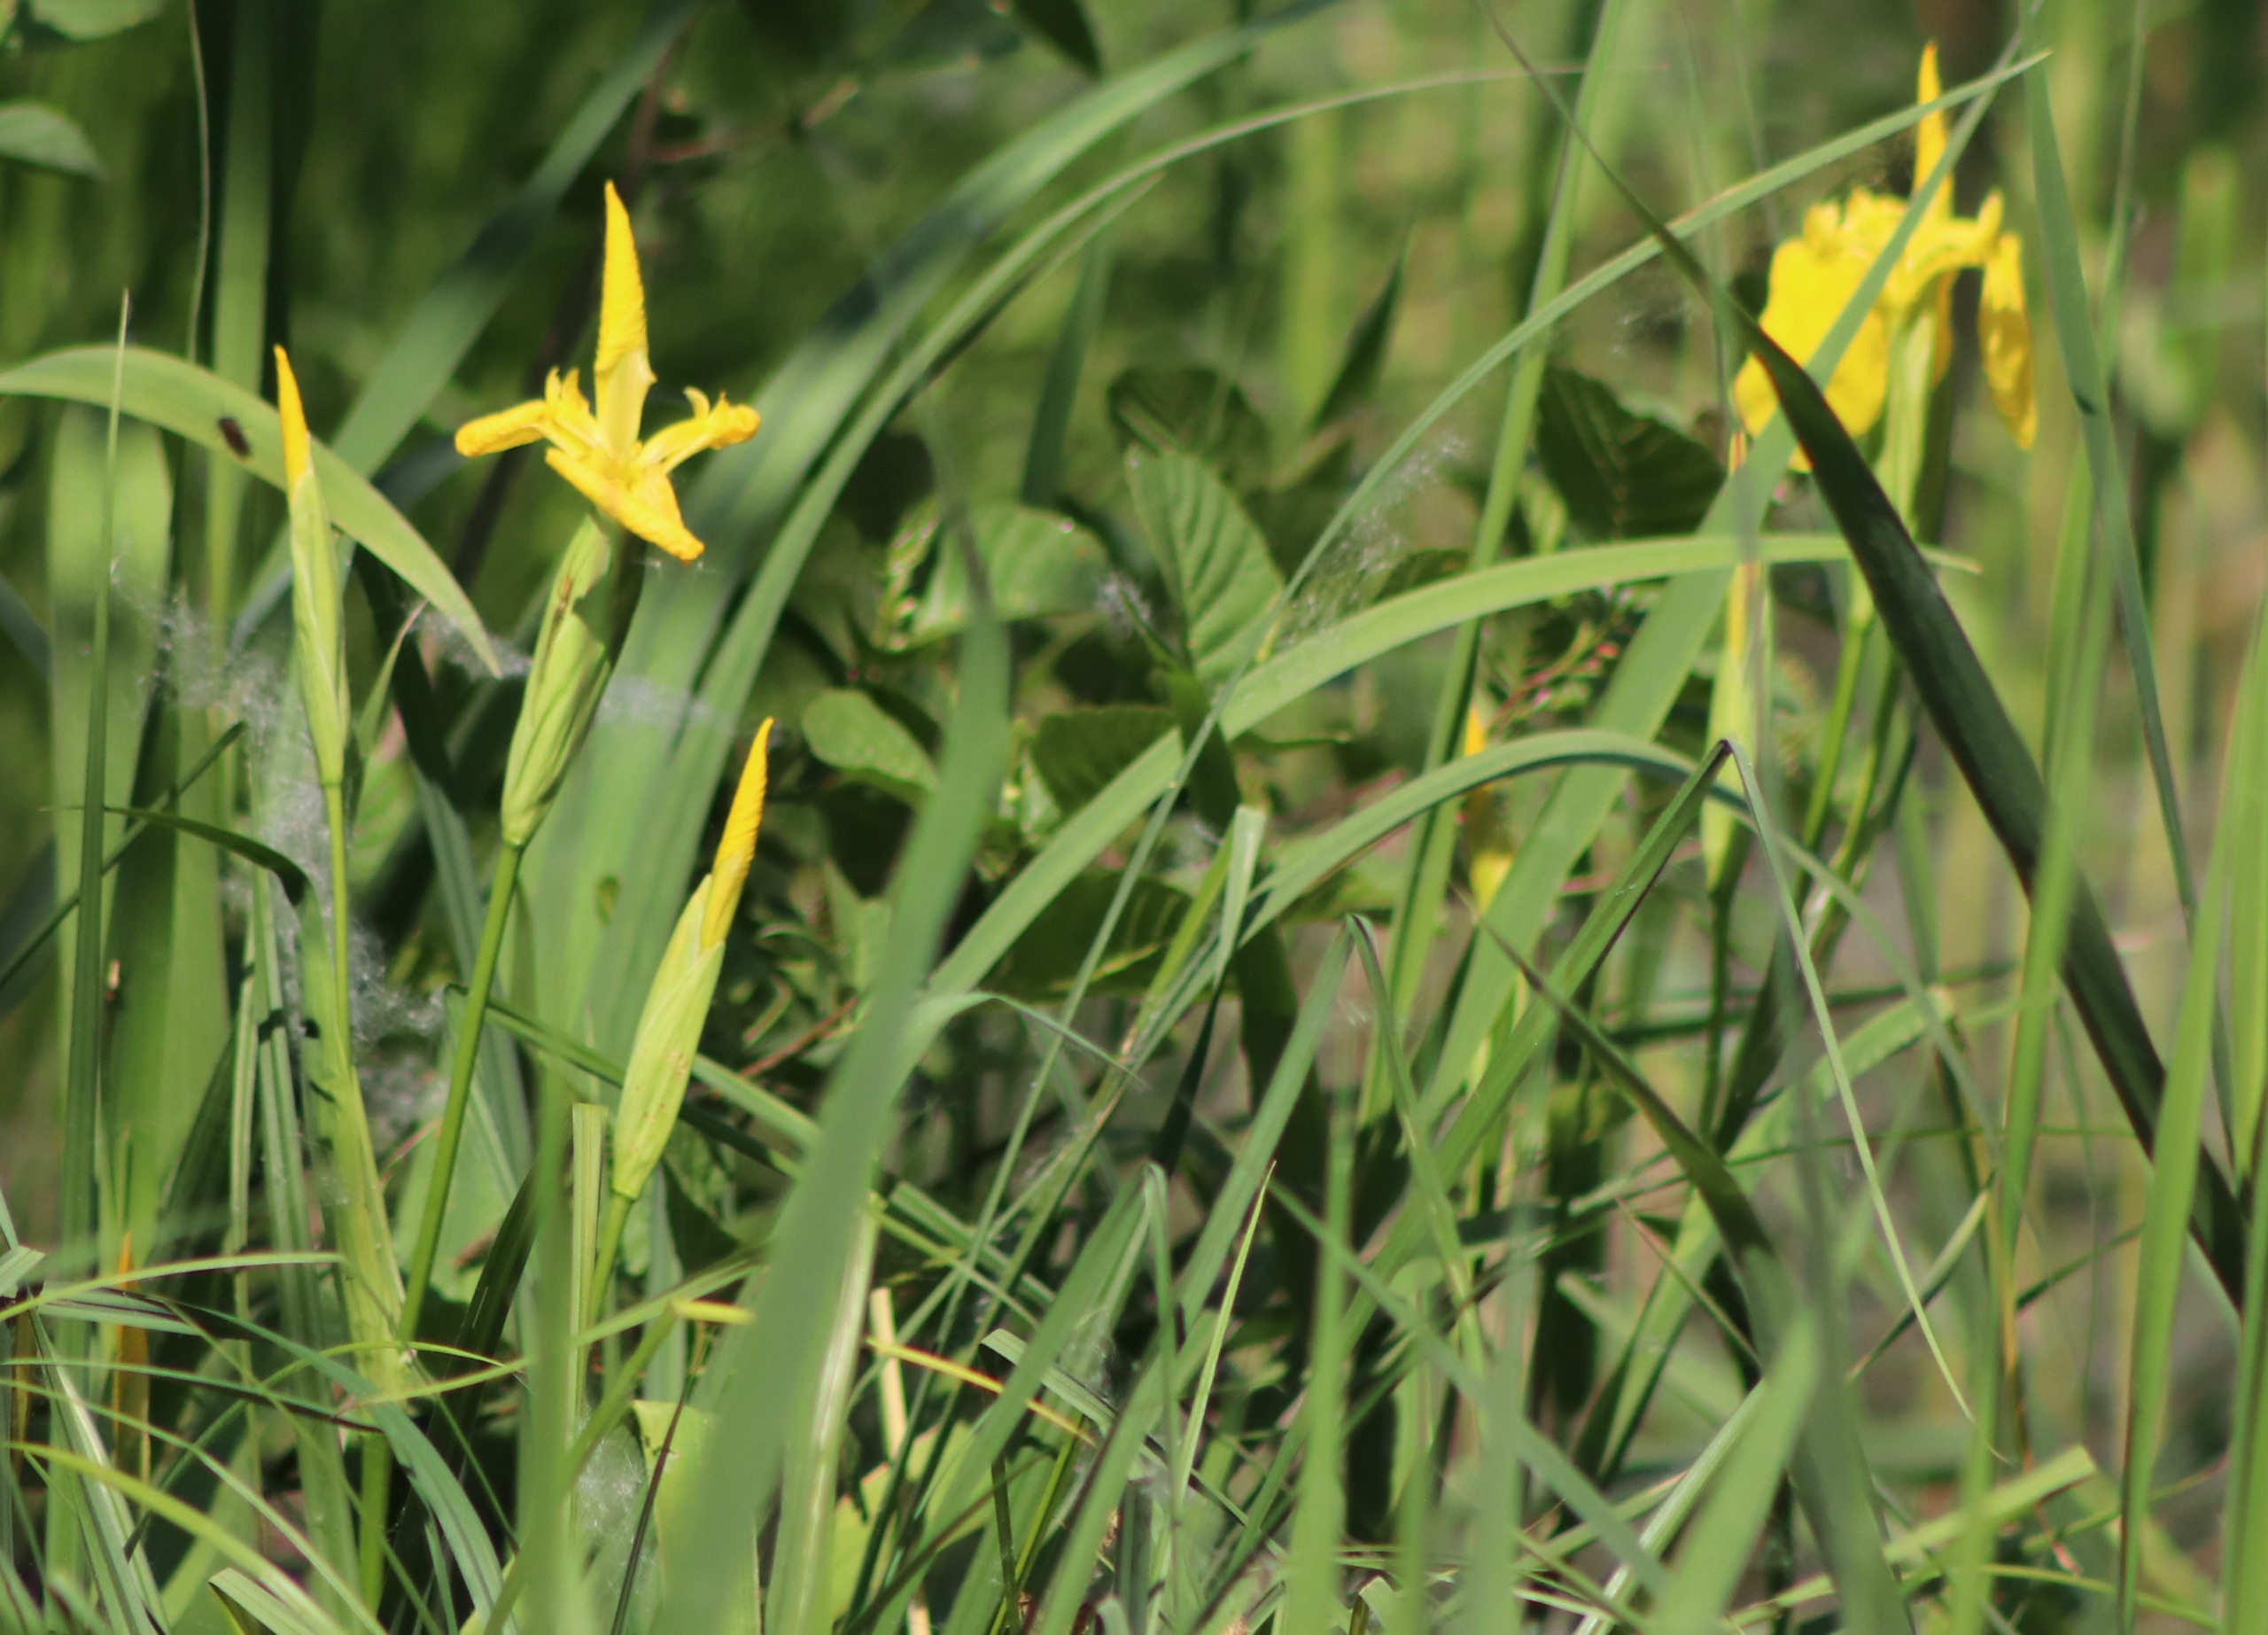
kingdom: Plantae
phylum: Tracheophyta
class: Liliopsida
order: Asparagales
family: Iridaceae
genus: Iris
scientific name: Iris pseudacorus
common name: Gul iris
